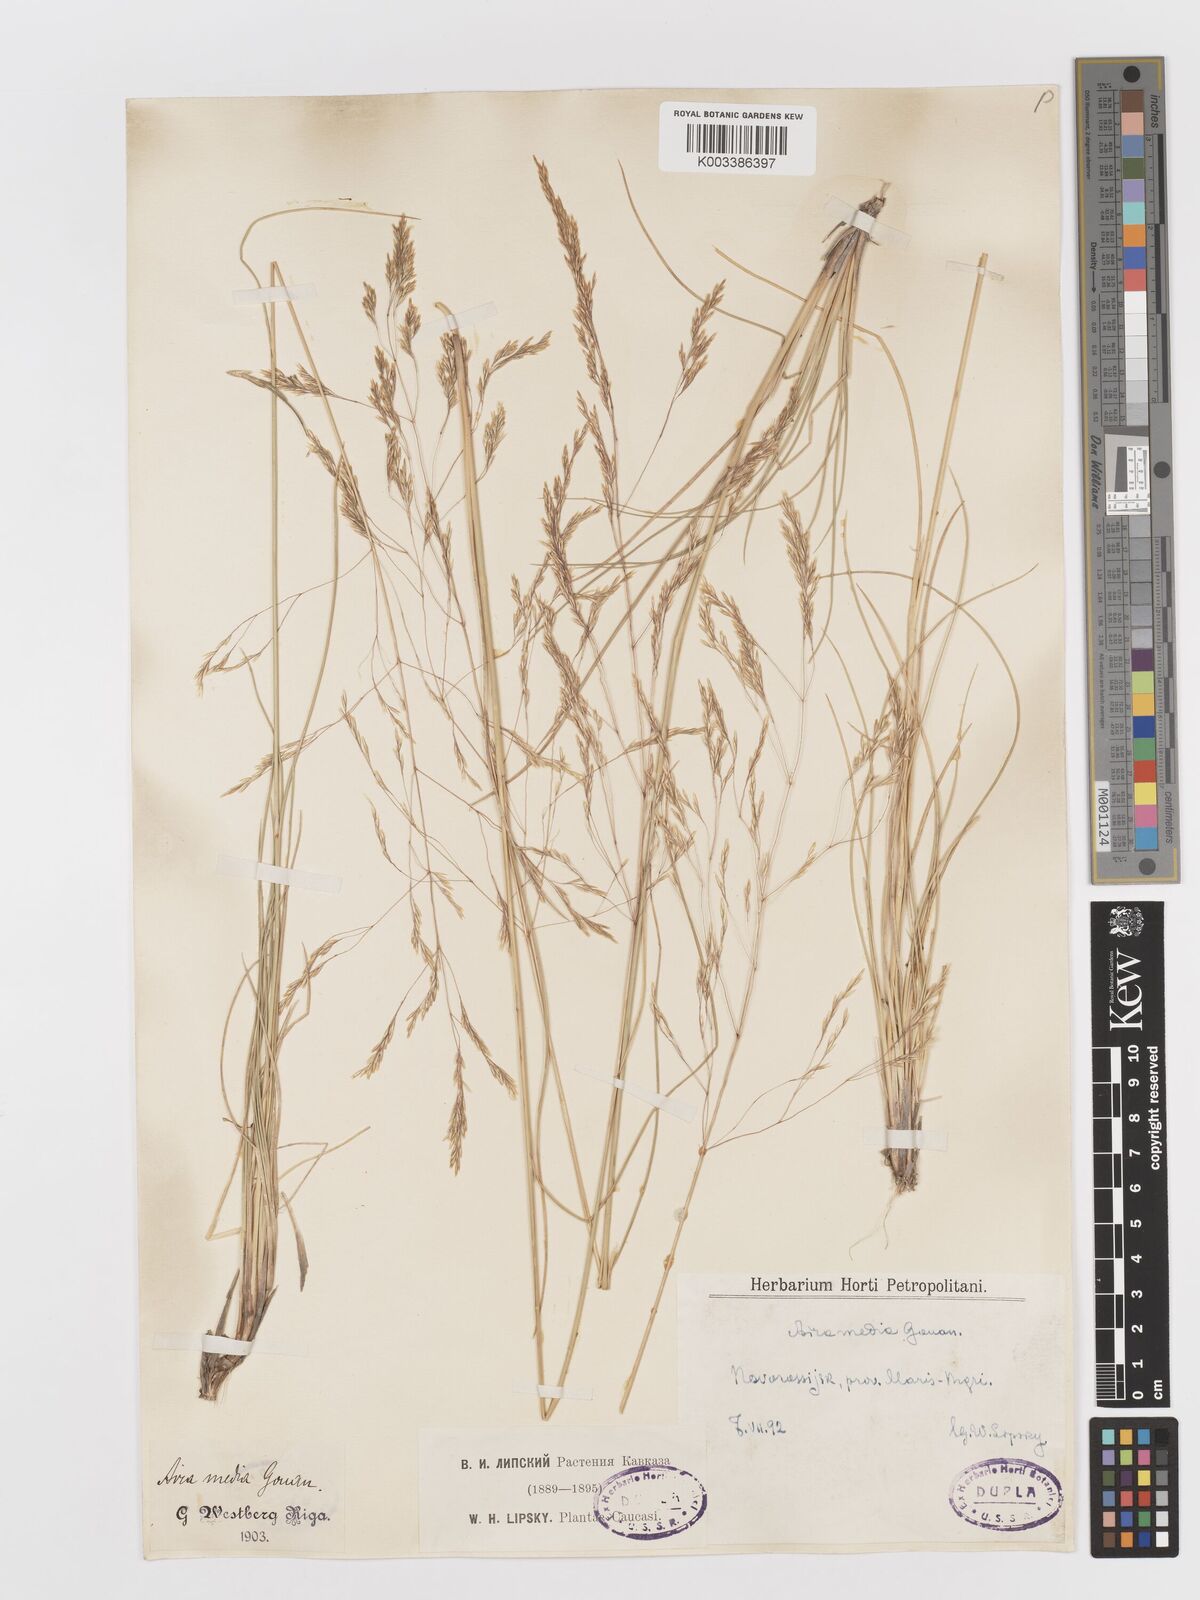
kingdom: Plantae
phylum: Tracheophyta
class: Liliopsida
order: Poales
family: Poaceae
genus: Deschampsia
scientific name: Deschampsia media
